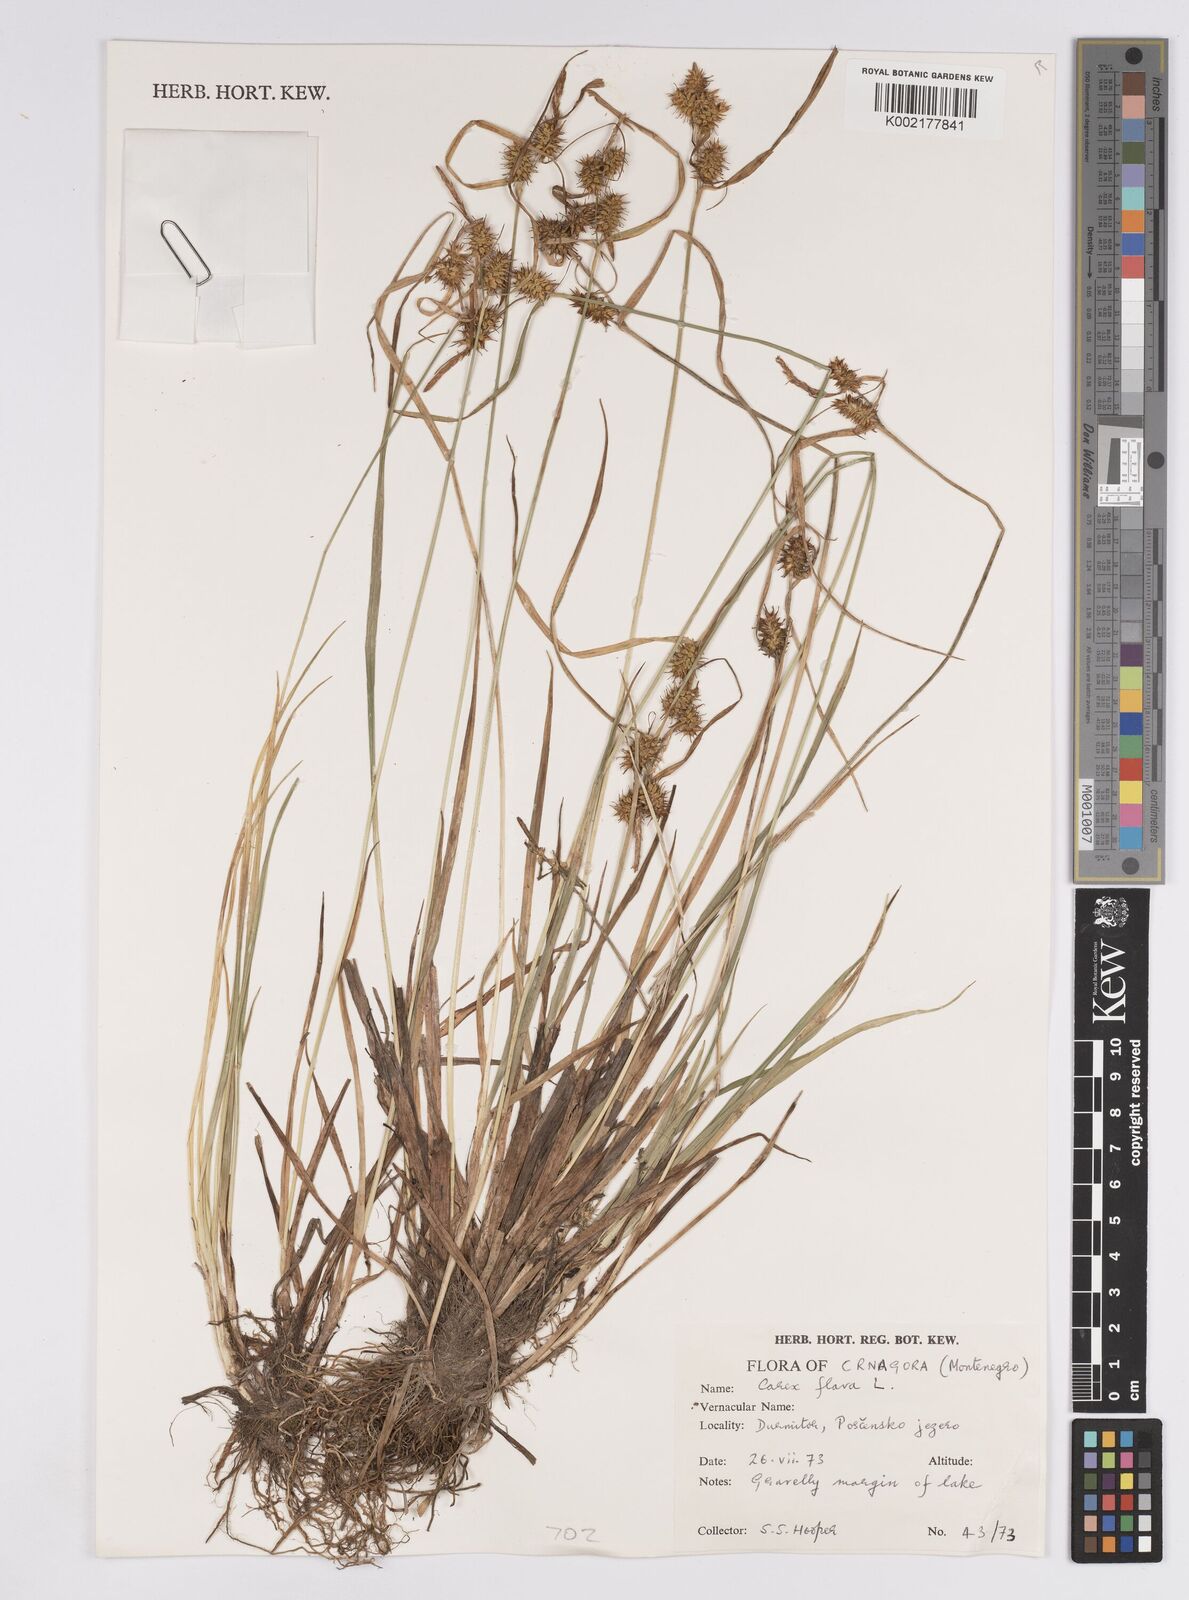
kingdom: Plantae
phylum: Tracheophyta
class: Liliopsida
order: Poales
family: Cyperaceae
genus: Carex
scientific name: Carex flava
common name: Large yellow-sedge
